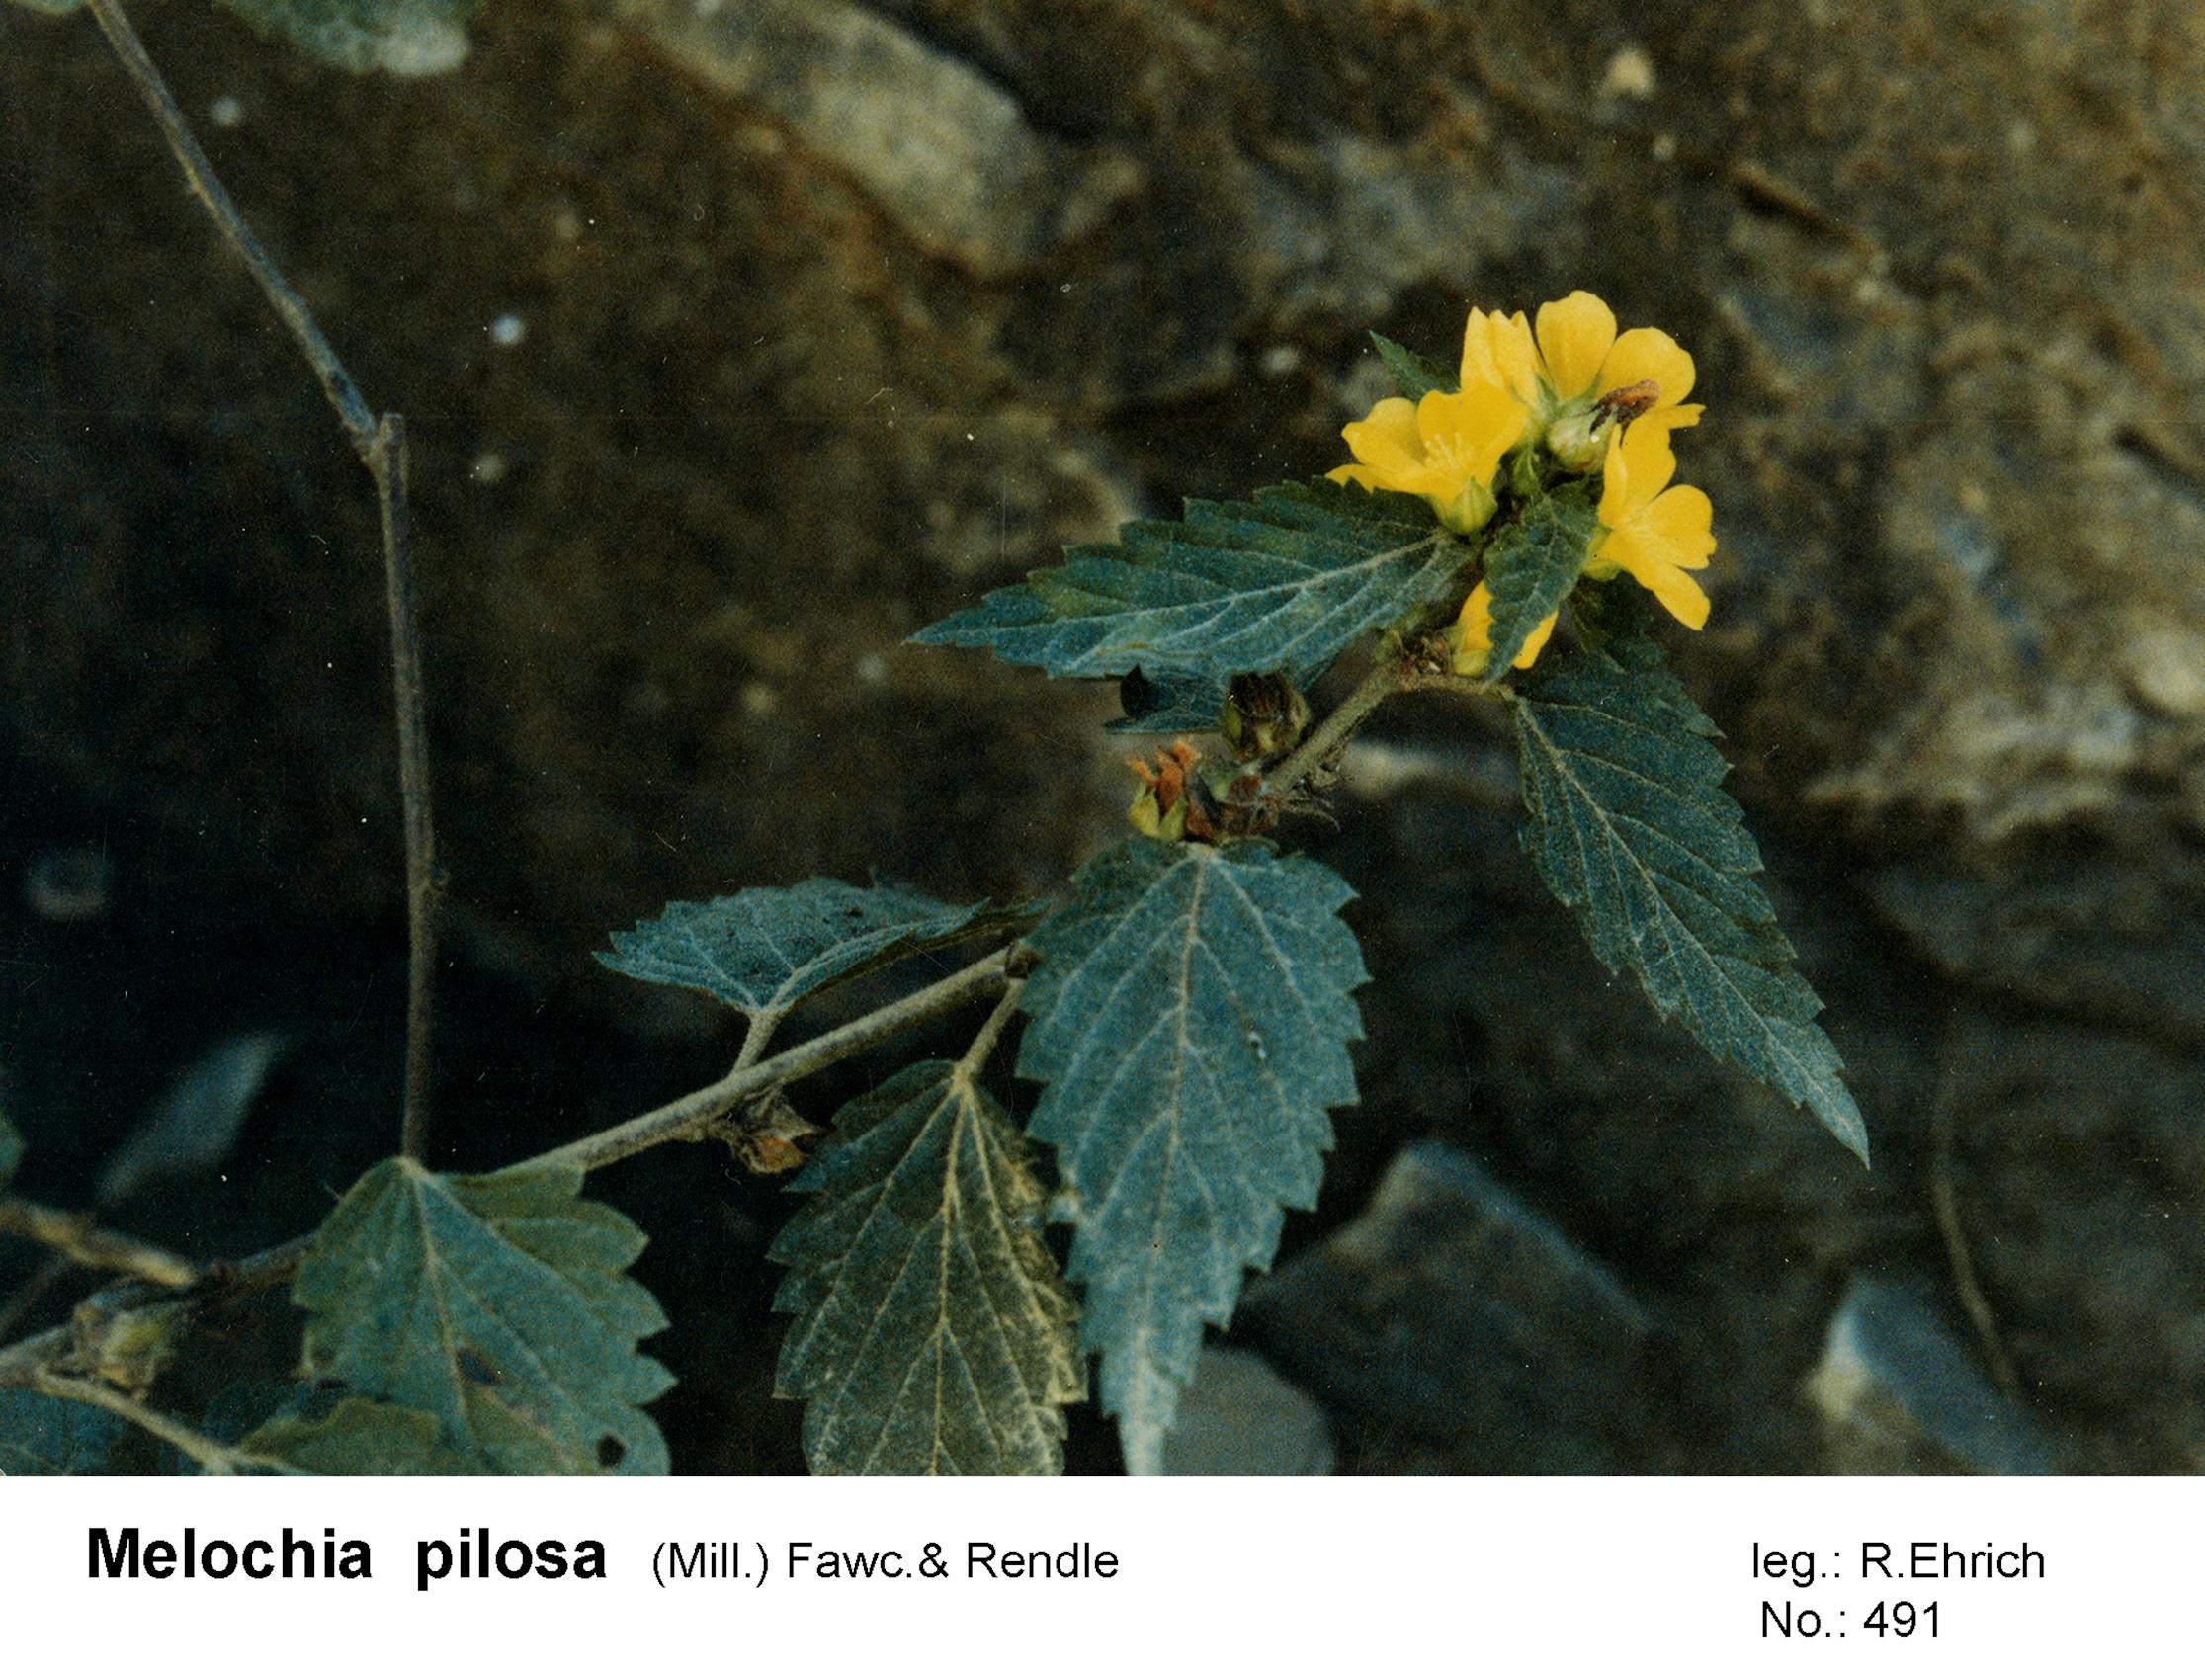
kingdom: Plantae
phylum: Tracheophyta
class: Magnoliopsida
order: Malvales
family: Malvaceae
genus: Melochia
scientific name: Melochia pilosa
